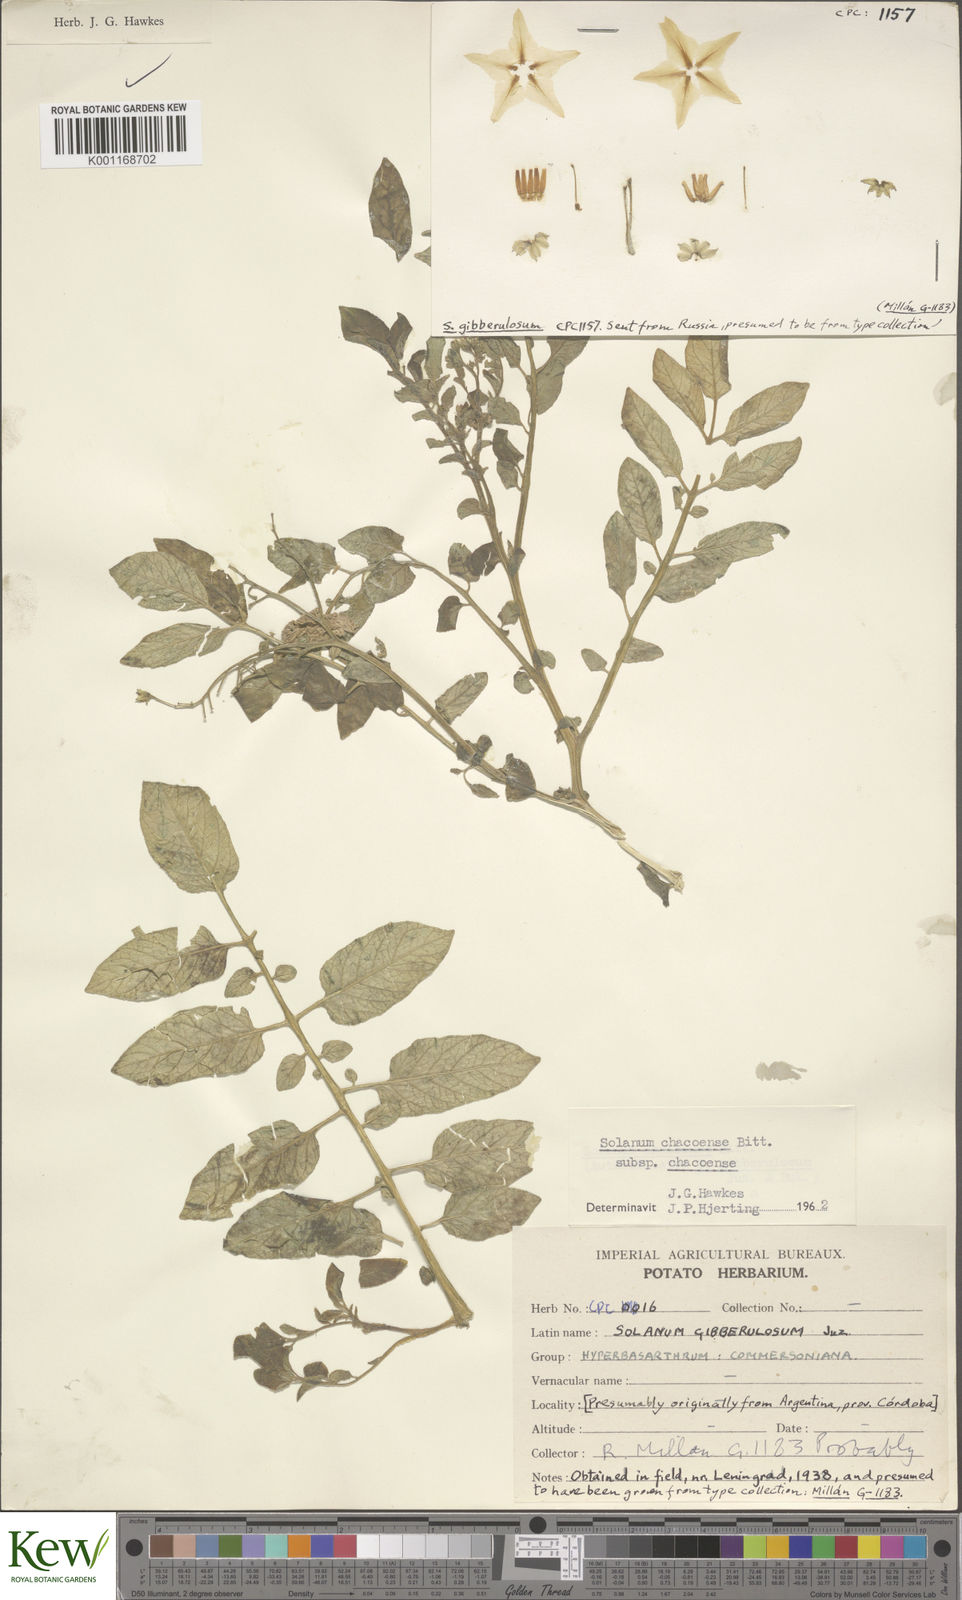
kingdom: Plantae
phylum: Tracheophyta
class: Magnoliopsida
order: Solanales
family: Solanaceae
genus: Solanum
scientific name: Solanum chacoense
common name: Chaco potato
